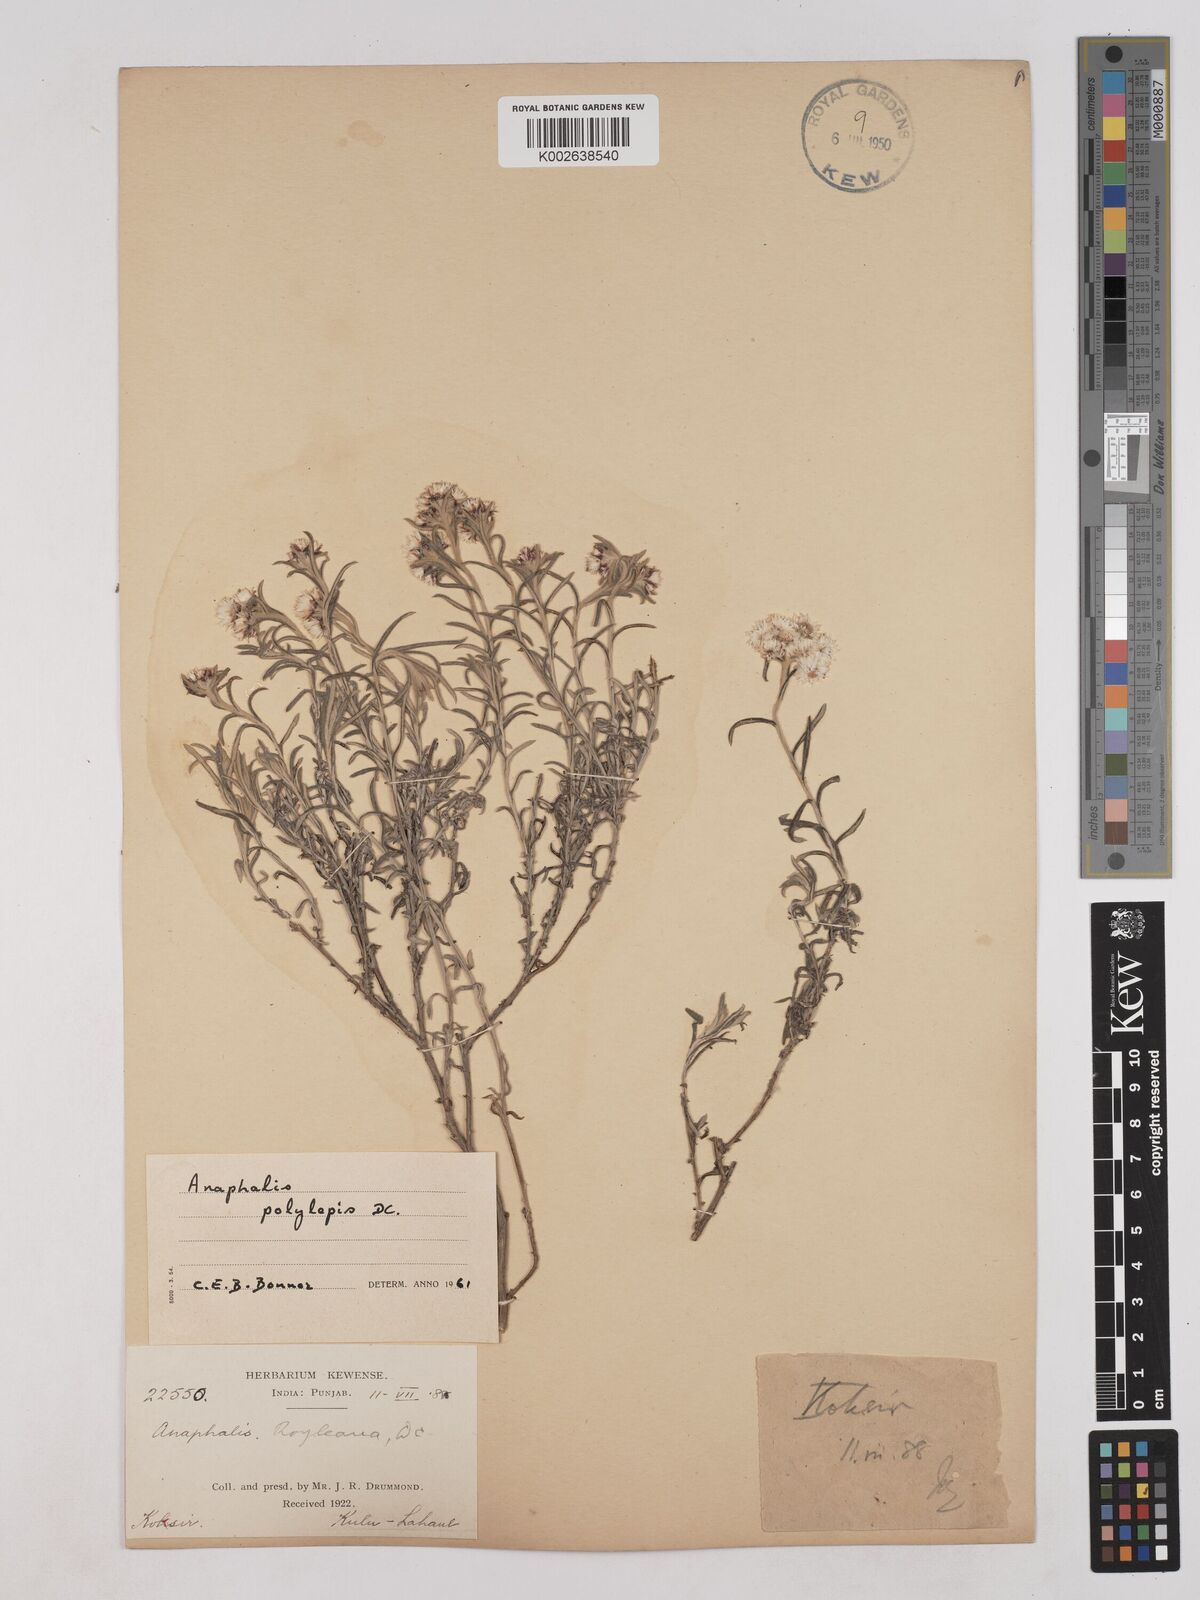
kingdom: Plantae
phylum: Tracheophyta
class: Magnoliopsida
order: Asterales
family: Asteraceae
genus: Anaphalis
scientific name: Anaphalis royleana
